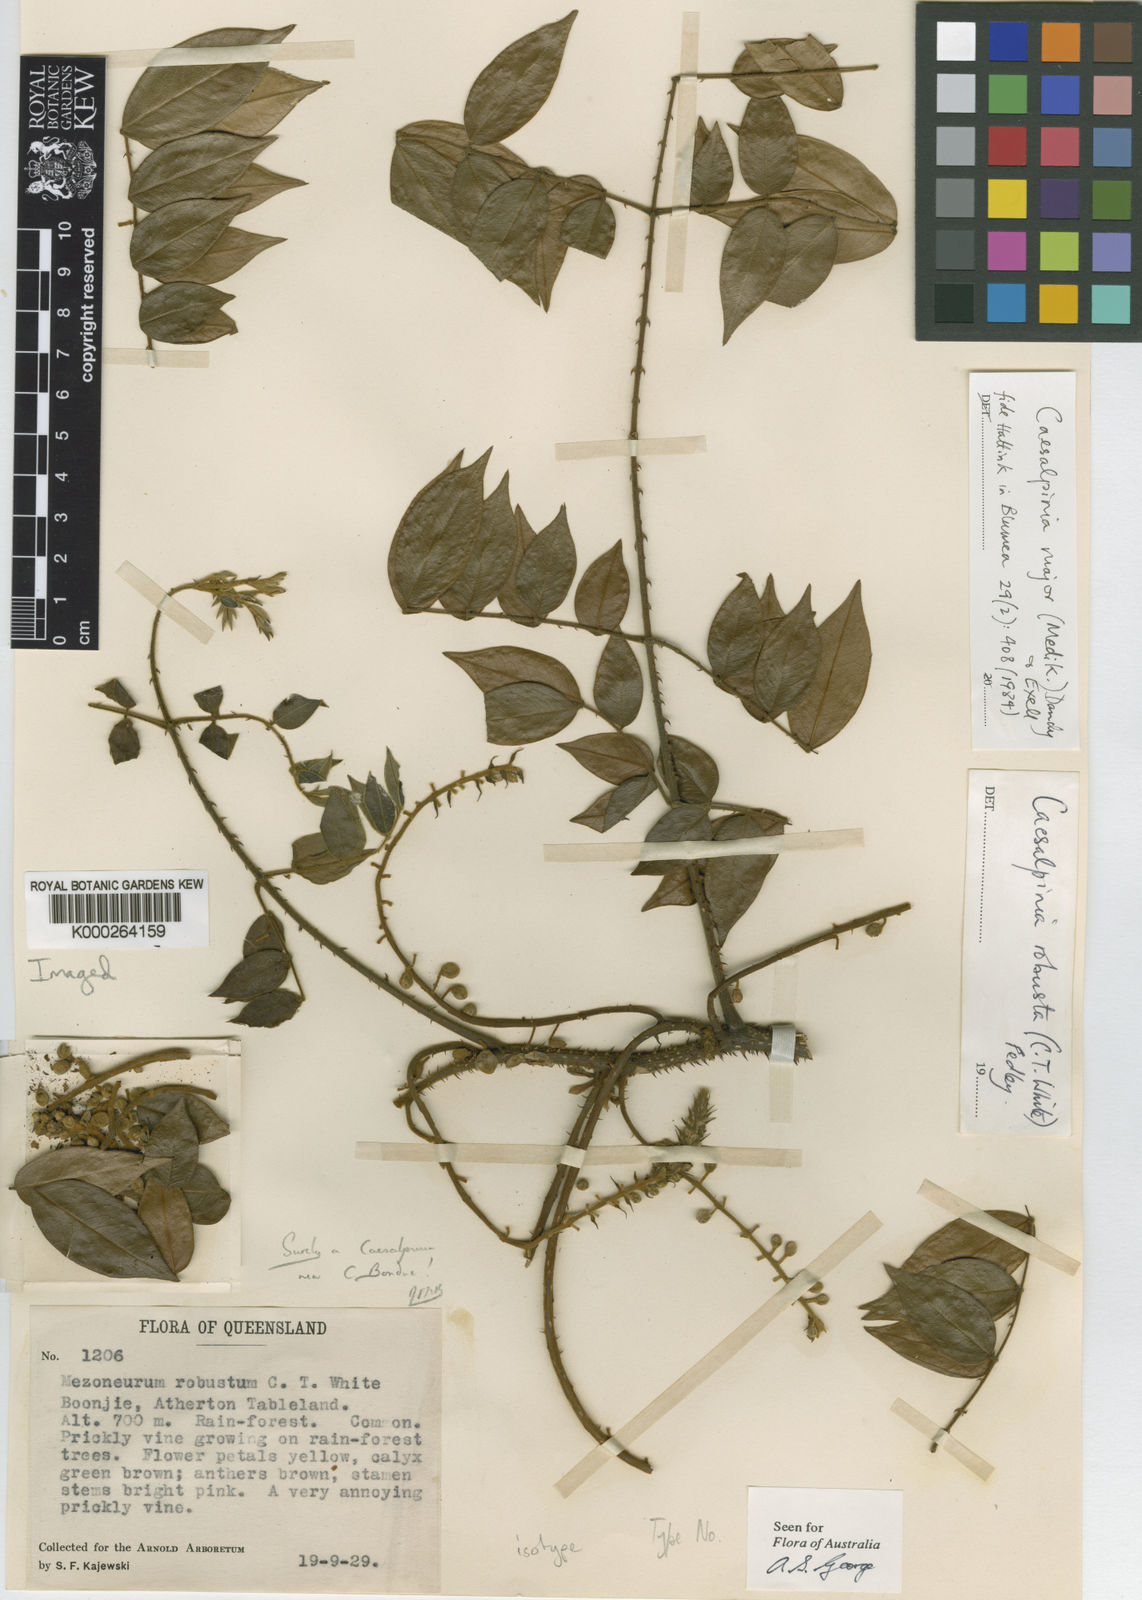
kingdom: Plantae
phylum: Tracheophyta
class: Magnoliopsida
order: Fabales
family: Fabaceae
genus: Guilandina
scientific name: Guilandina major
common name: Hawai'i pearls
